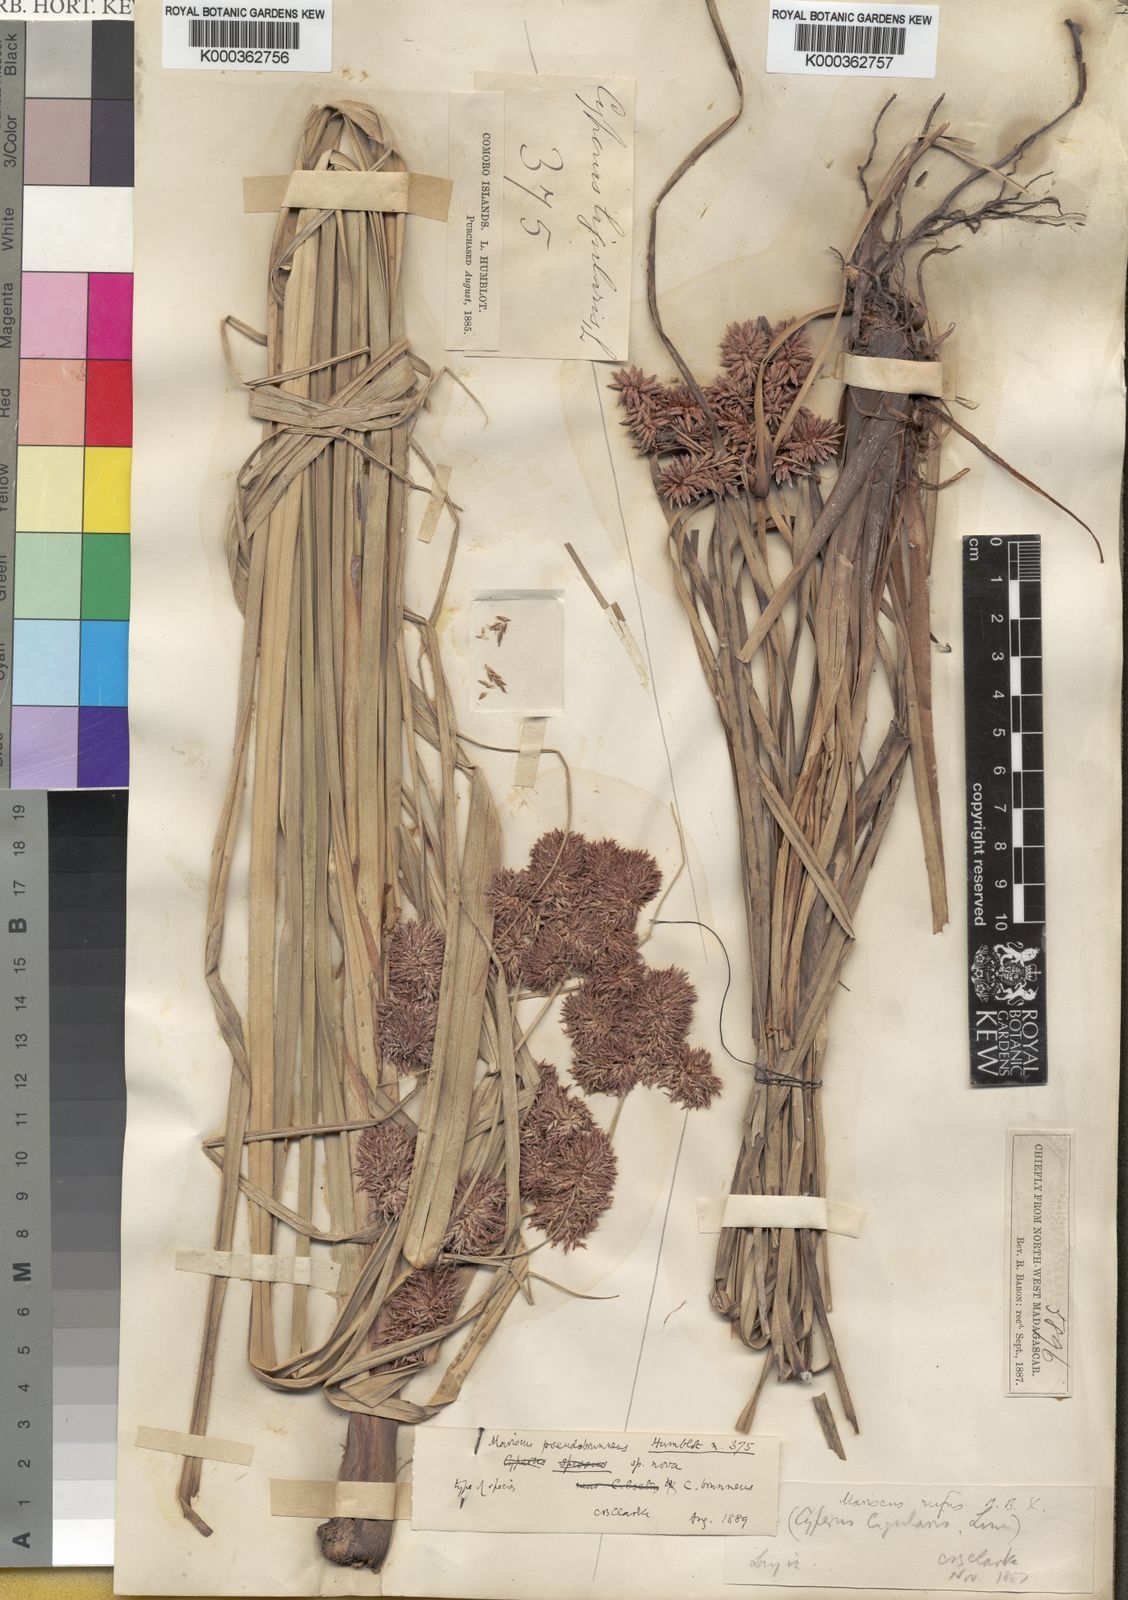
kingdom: Plantae
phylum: Tracheophyta
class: Liliopsida
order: Poales
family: Cyperaceae
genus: Cyperus
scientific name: Cyperus
